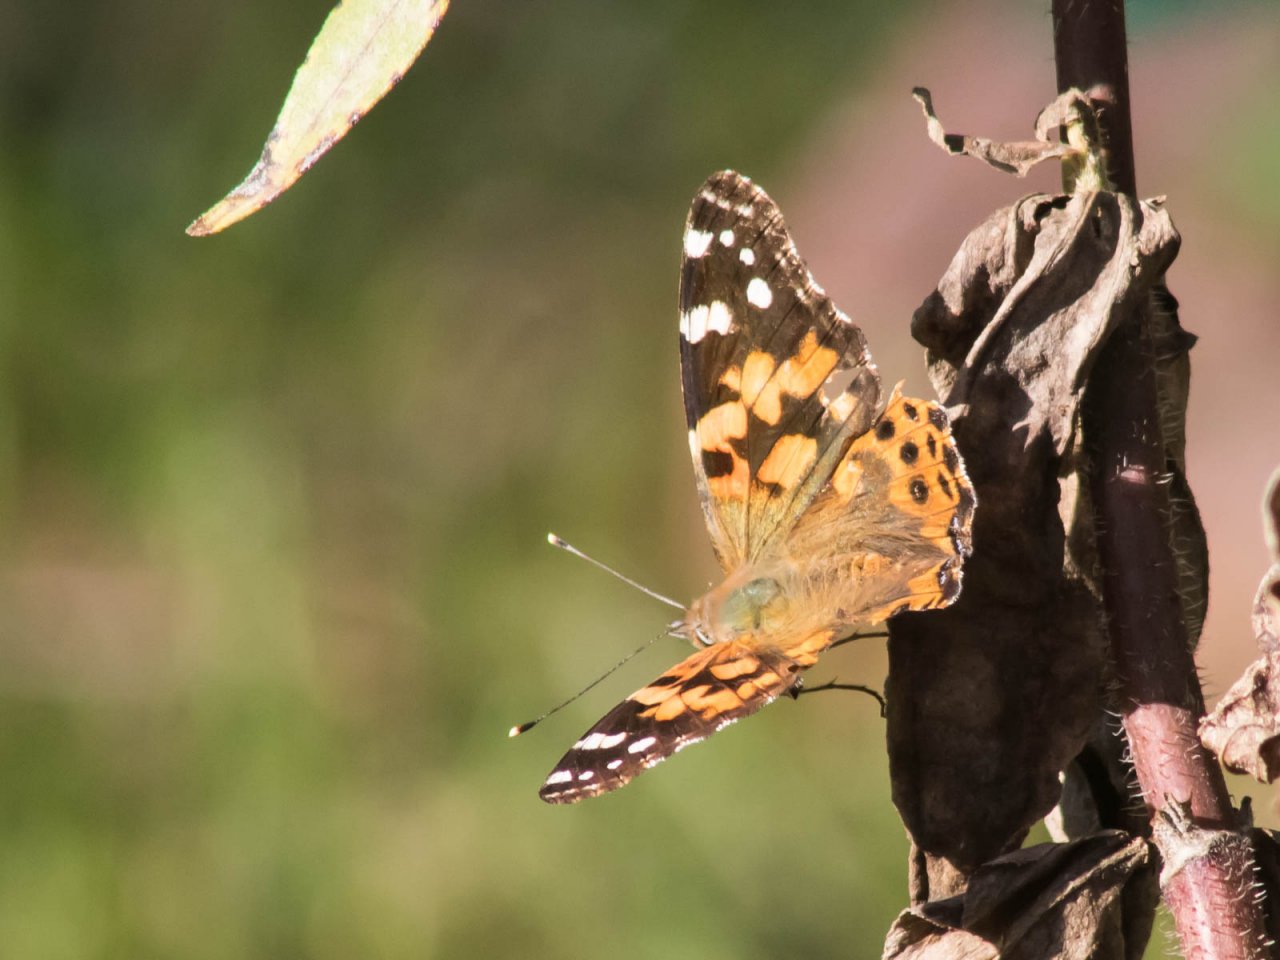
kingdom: Animalia
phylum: Arthropoda
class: Insecta
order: Lepidoptera
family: Nymphalidae
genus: Vanessa
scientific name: Vanessa cardui
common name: Painted Lady
